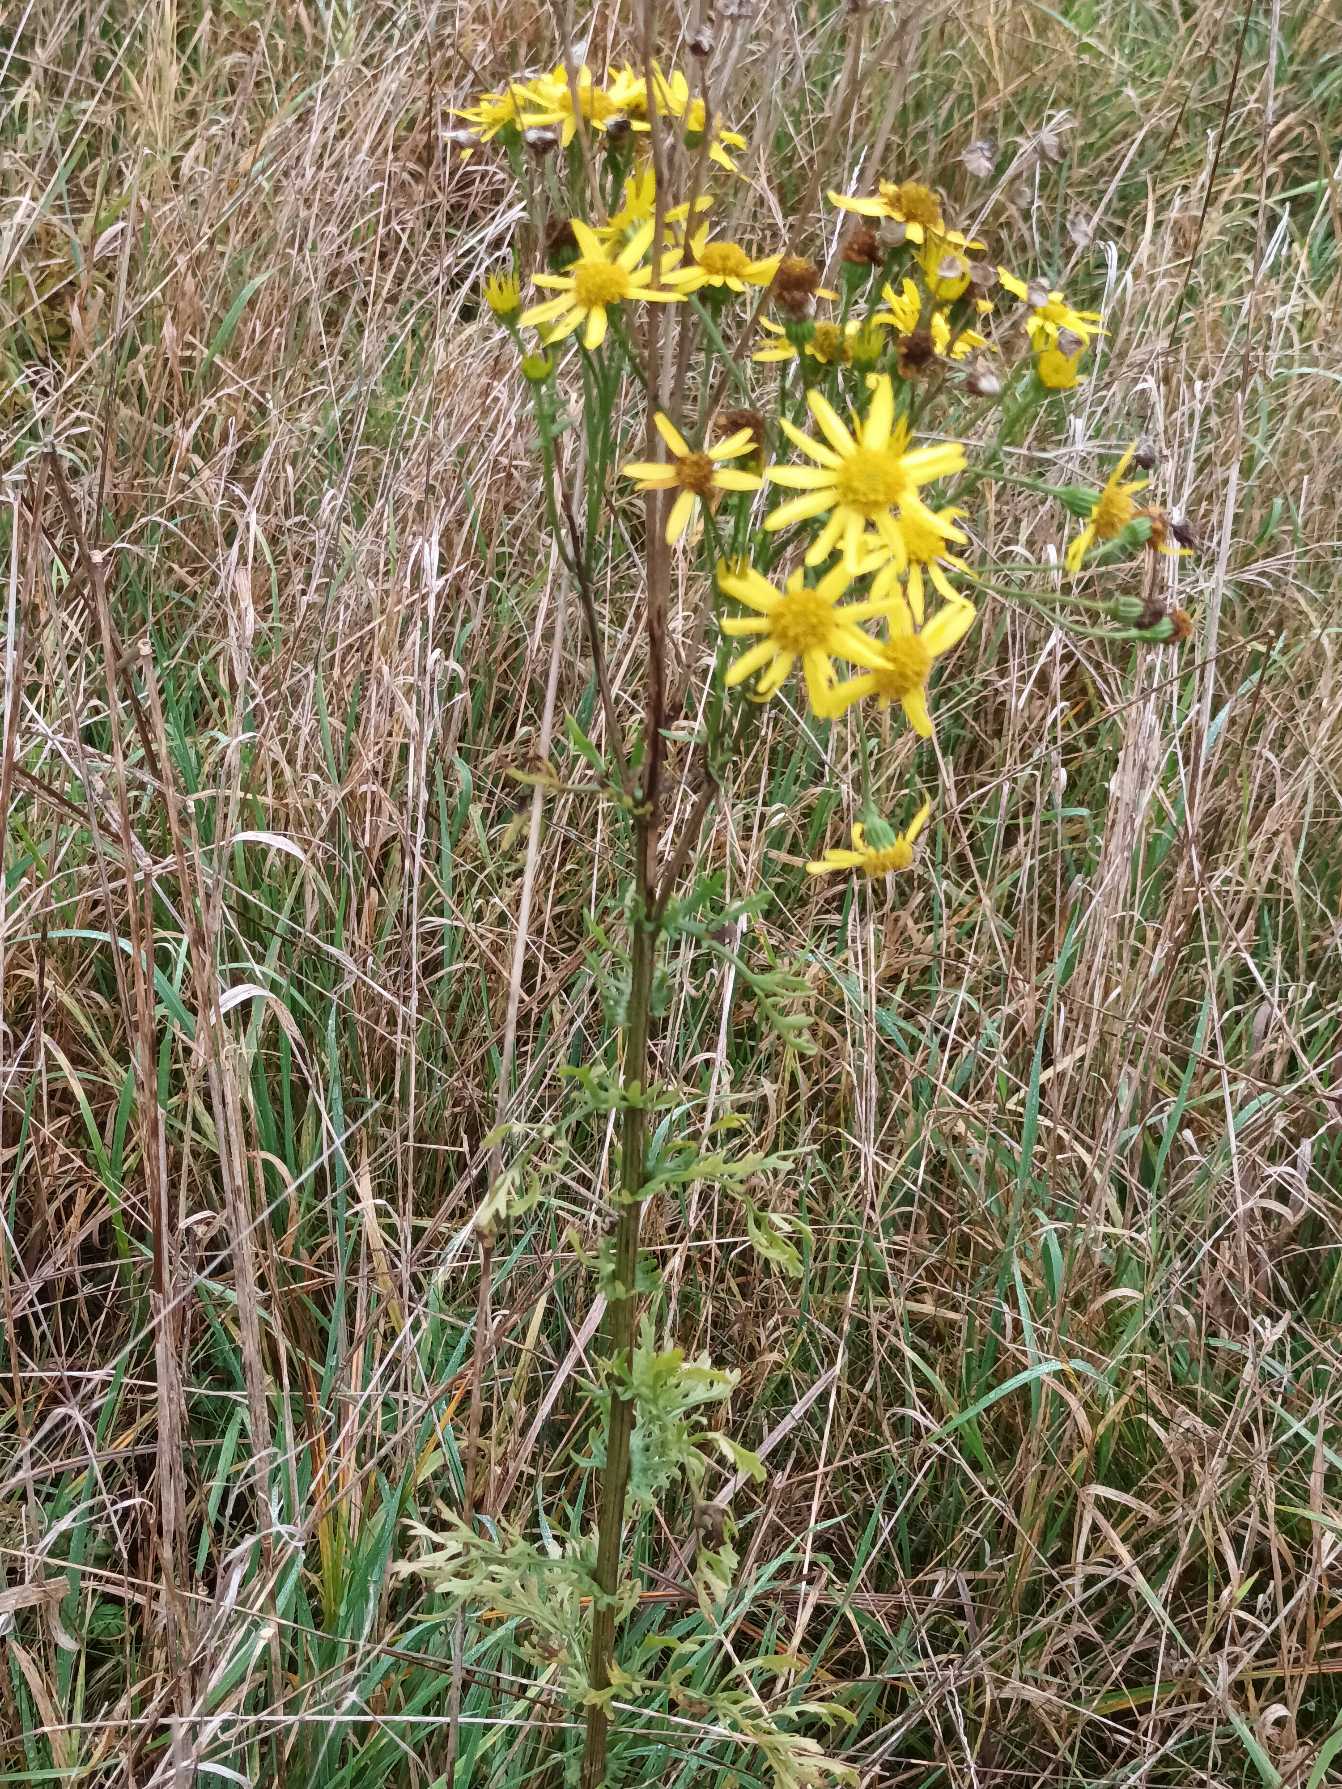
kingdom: Plantae
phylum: Tracheophyta
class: Magnoliopsida
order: Asterales
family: Asteraceae
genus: Jacobaea
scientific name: Jacobaea vulgaris
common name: Eng-brandbæger
